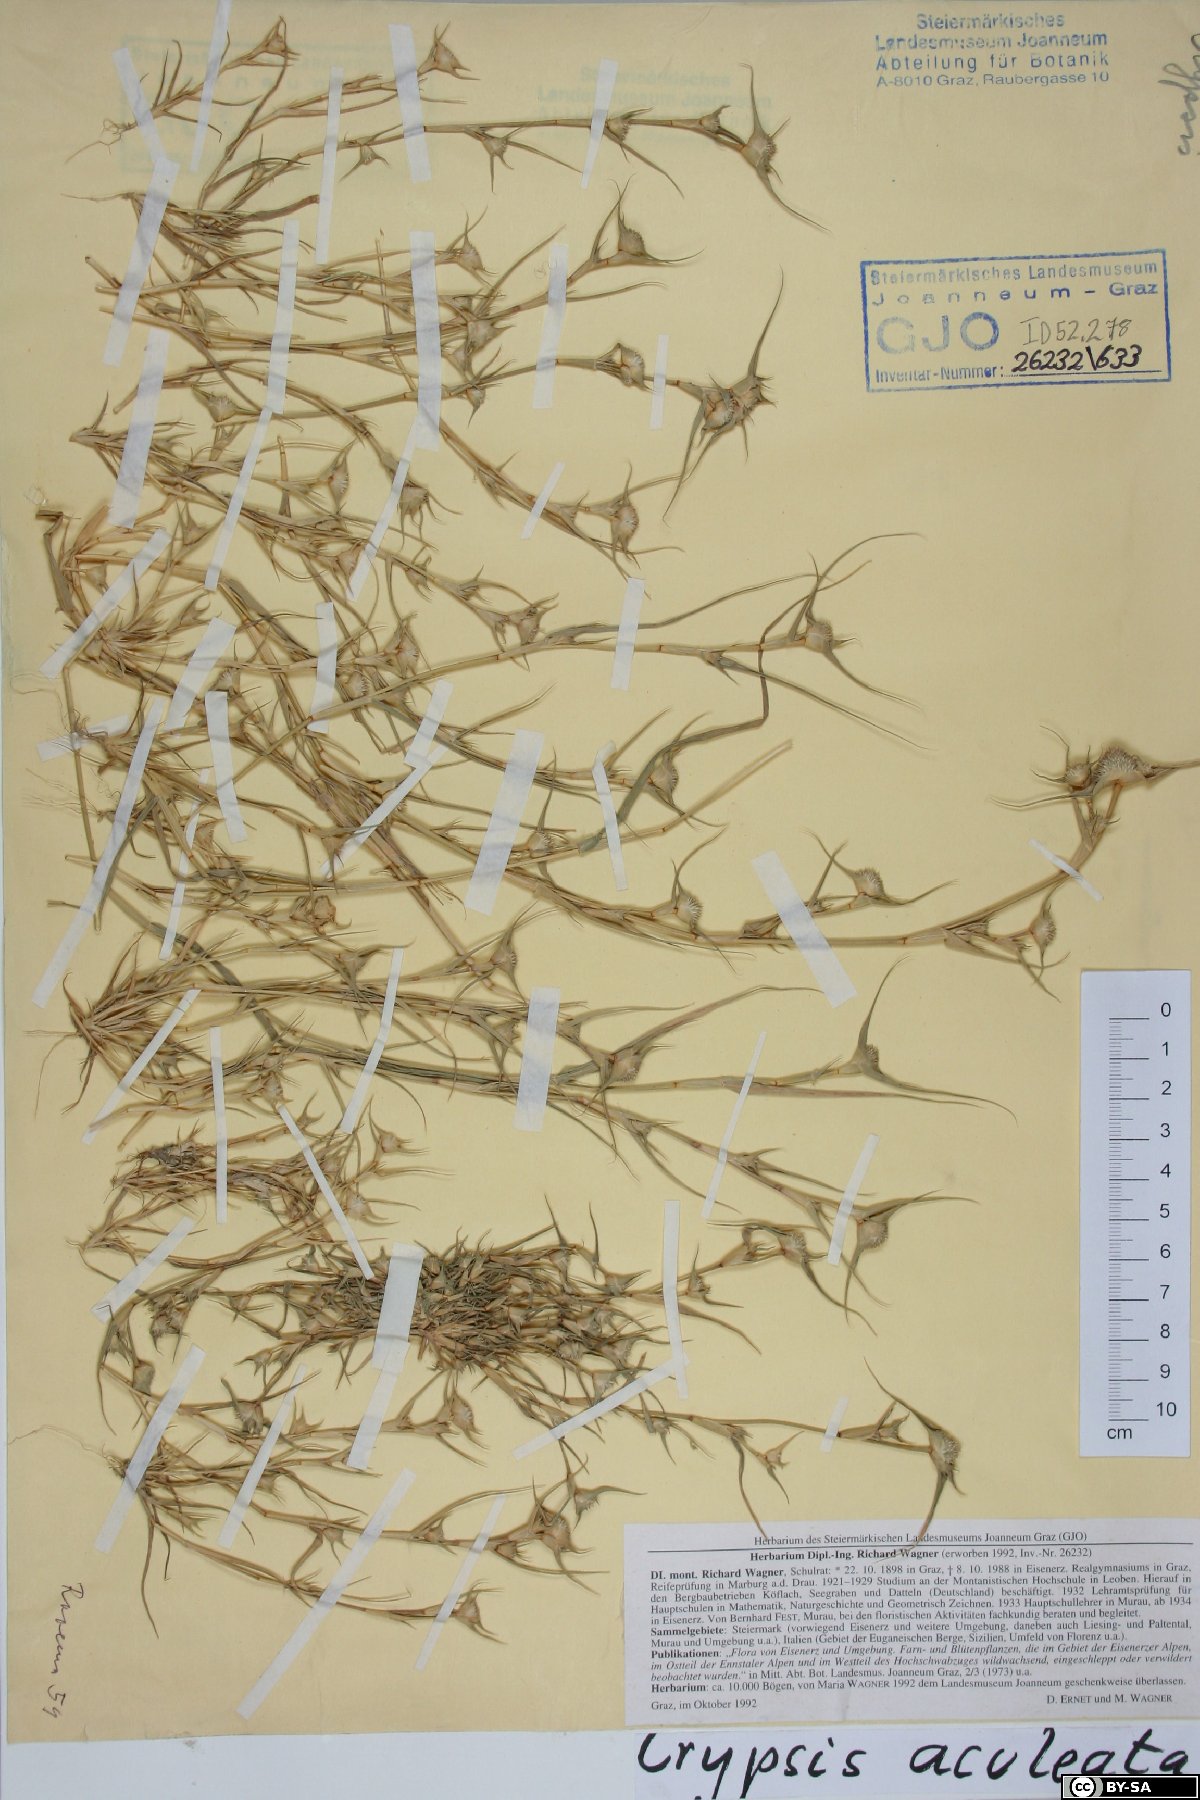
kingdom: Plantae
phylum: Tracheophyta
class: Liliopsida
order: Poales
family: Poaceae
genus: Sporobolus
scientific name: Sporobolus aculeatus
